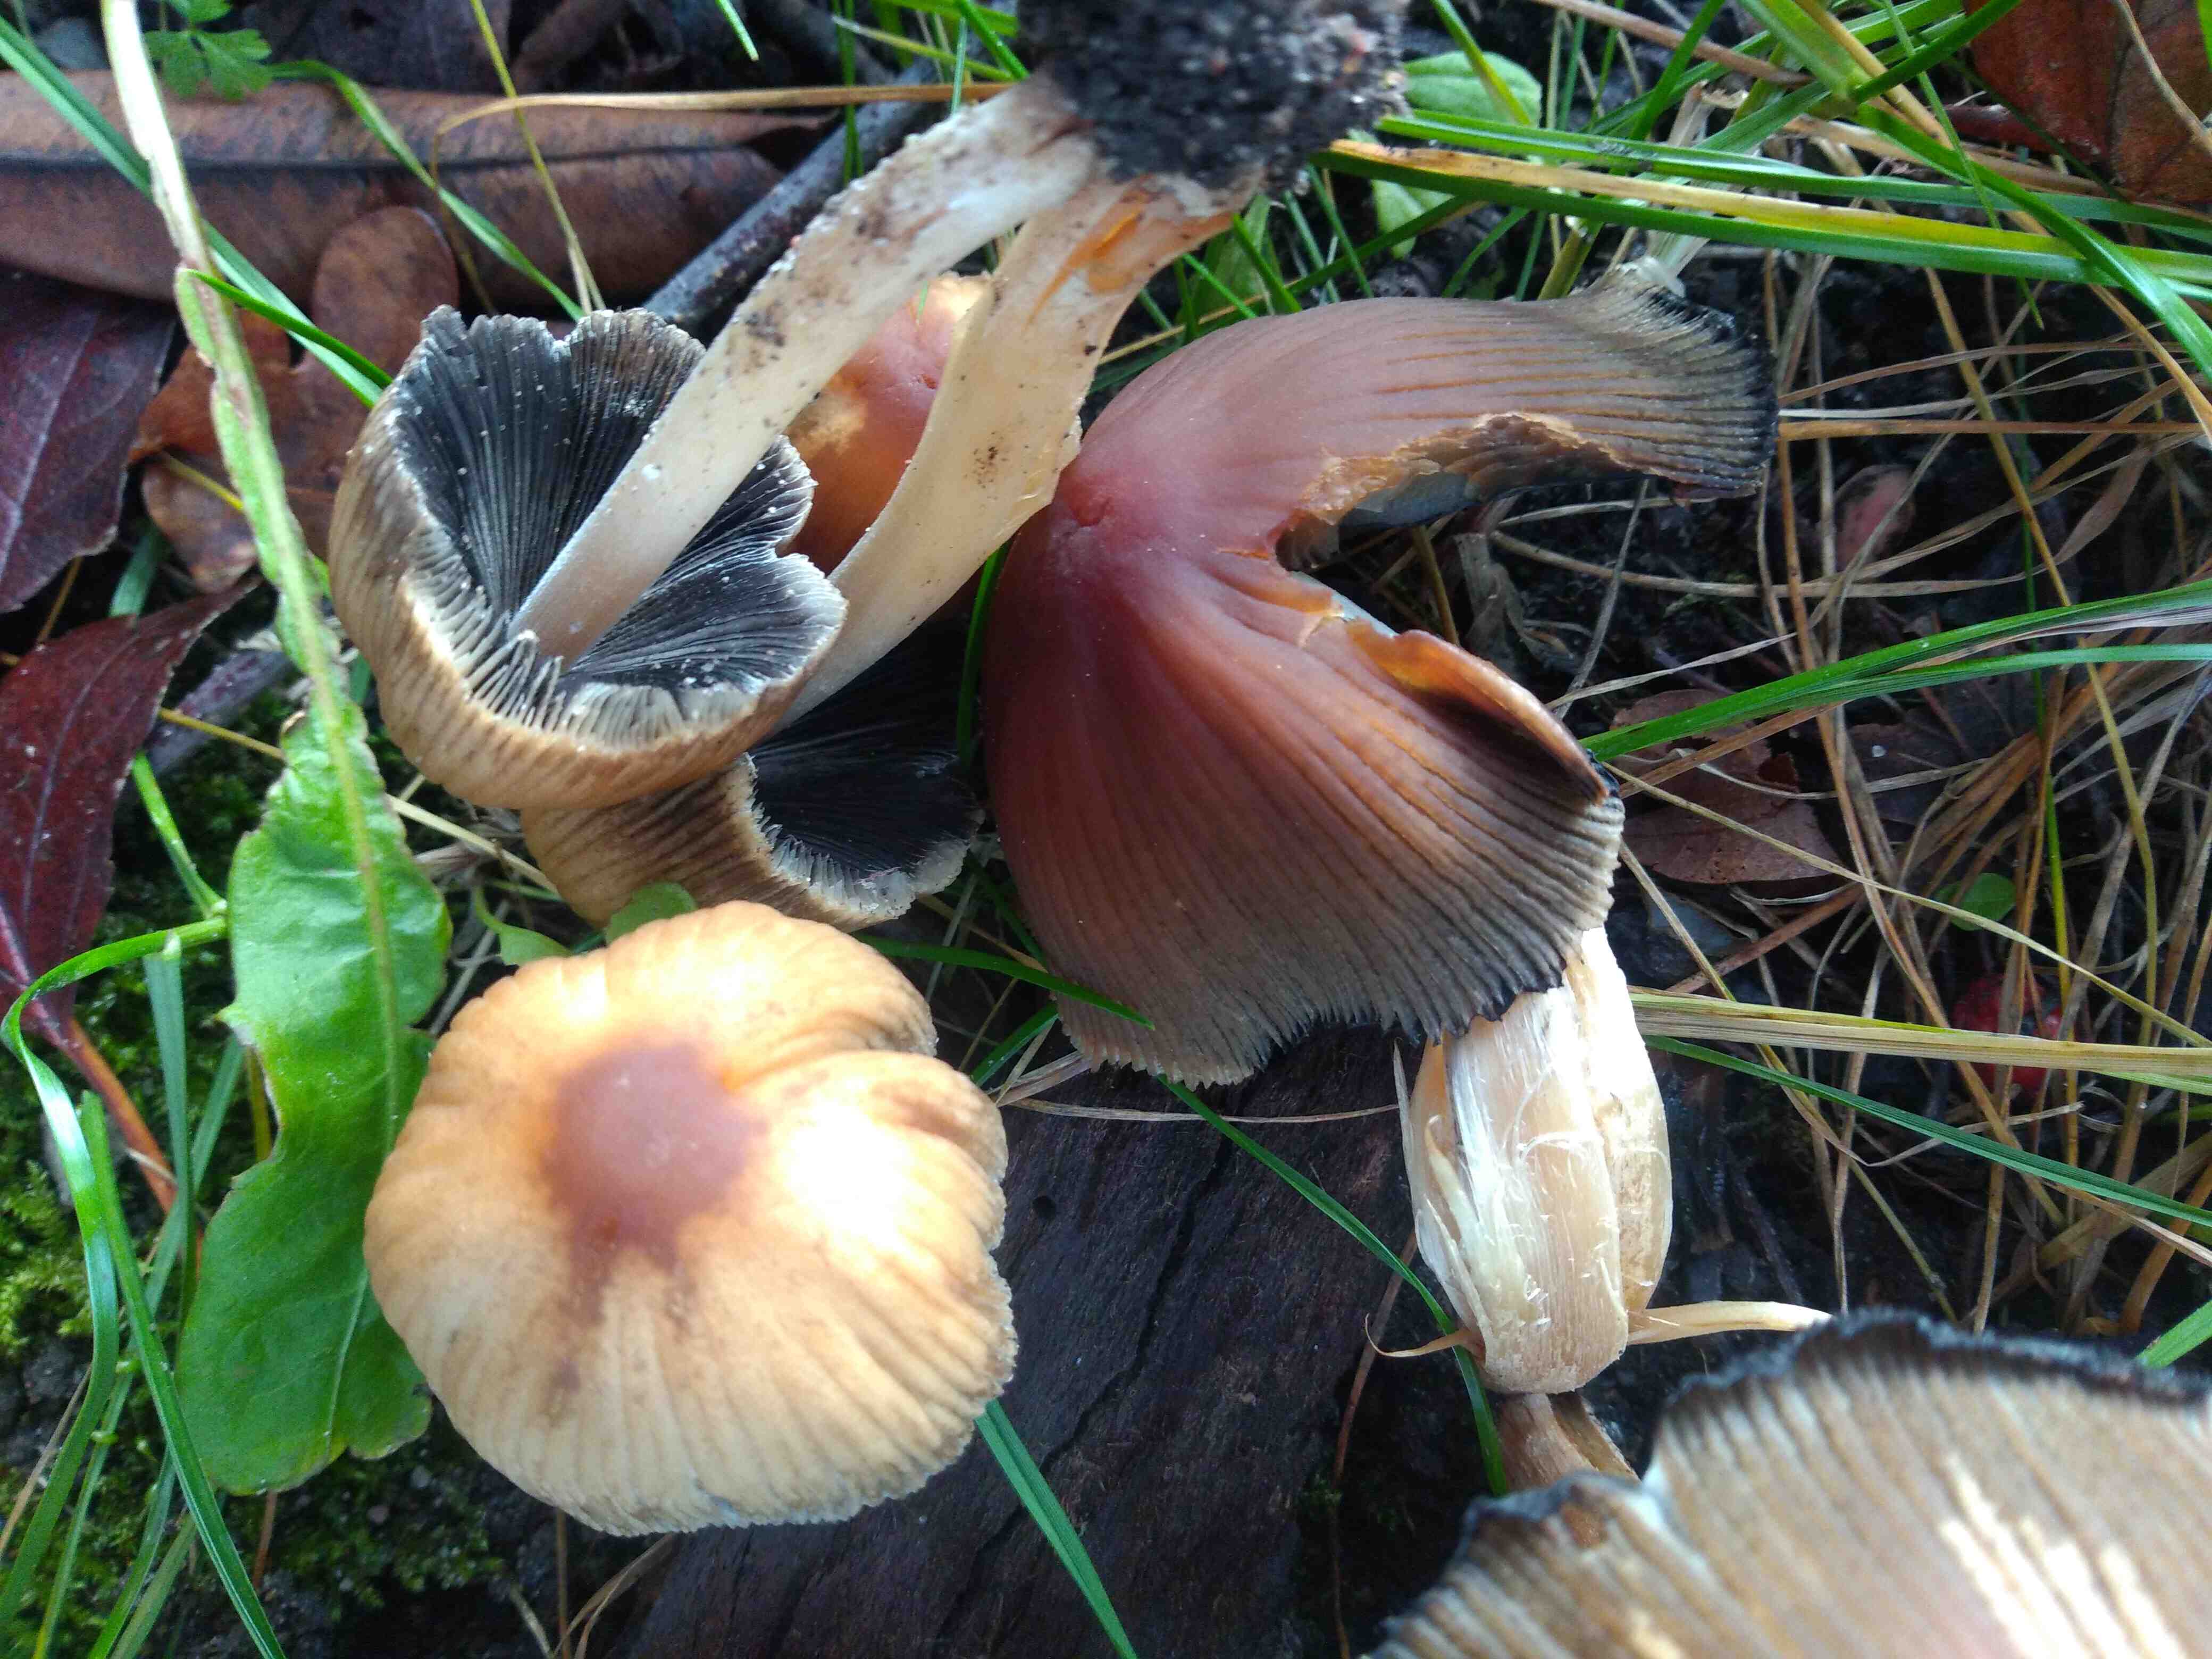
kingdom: Fungi
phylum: Basidiomycota
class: Agaricomycetes
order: Agaricales
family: Psathyrellaceae
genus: Coprinellus
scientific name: Coprinellus
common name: blækhat
